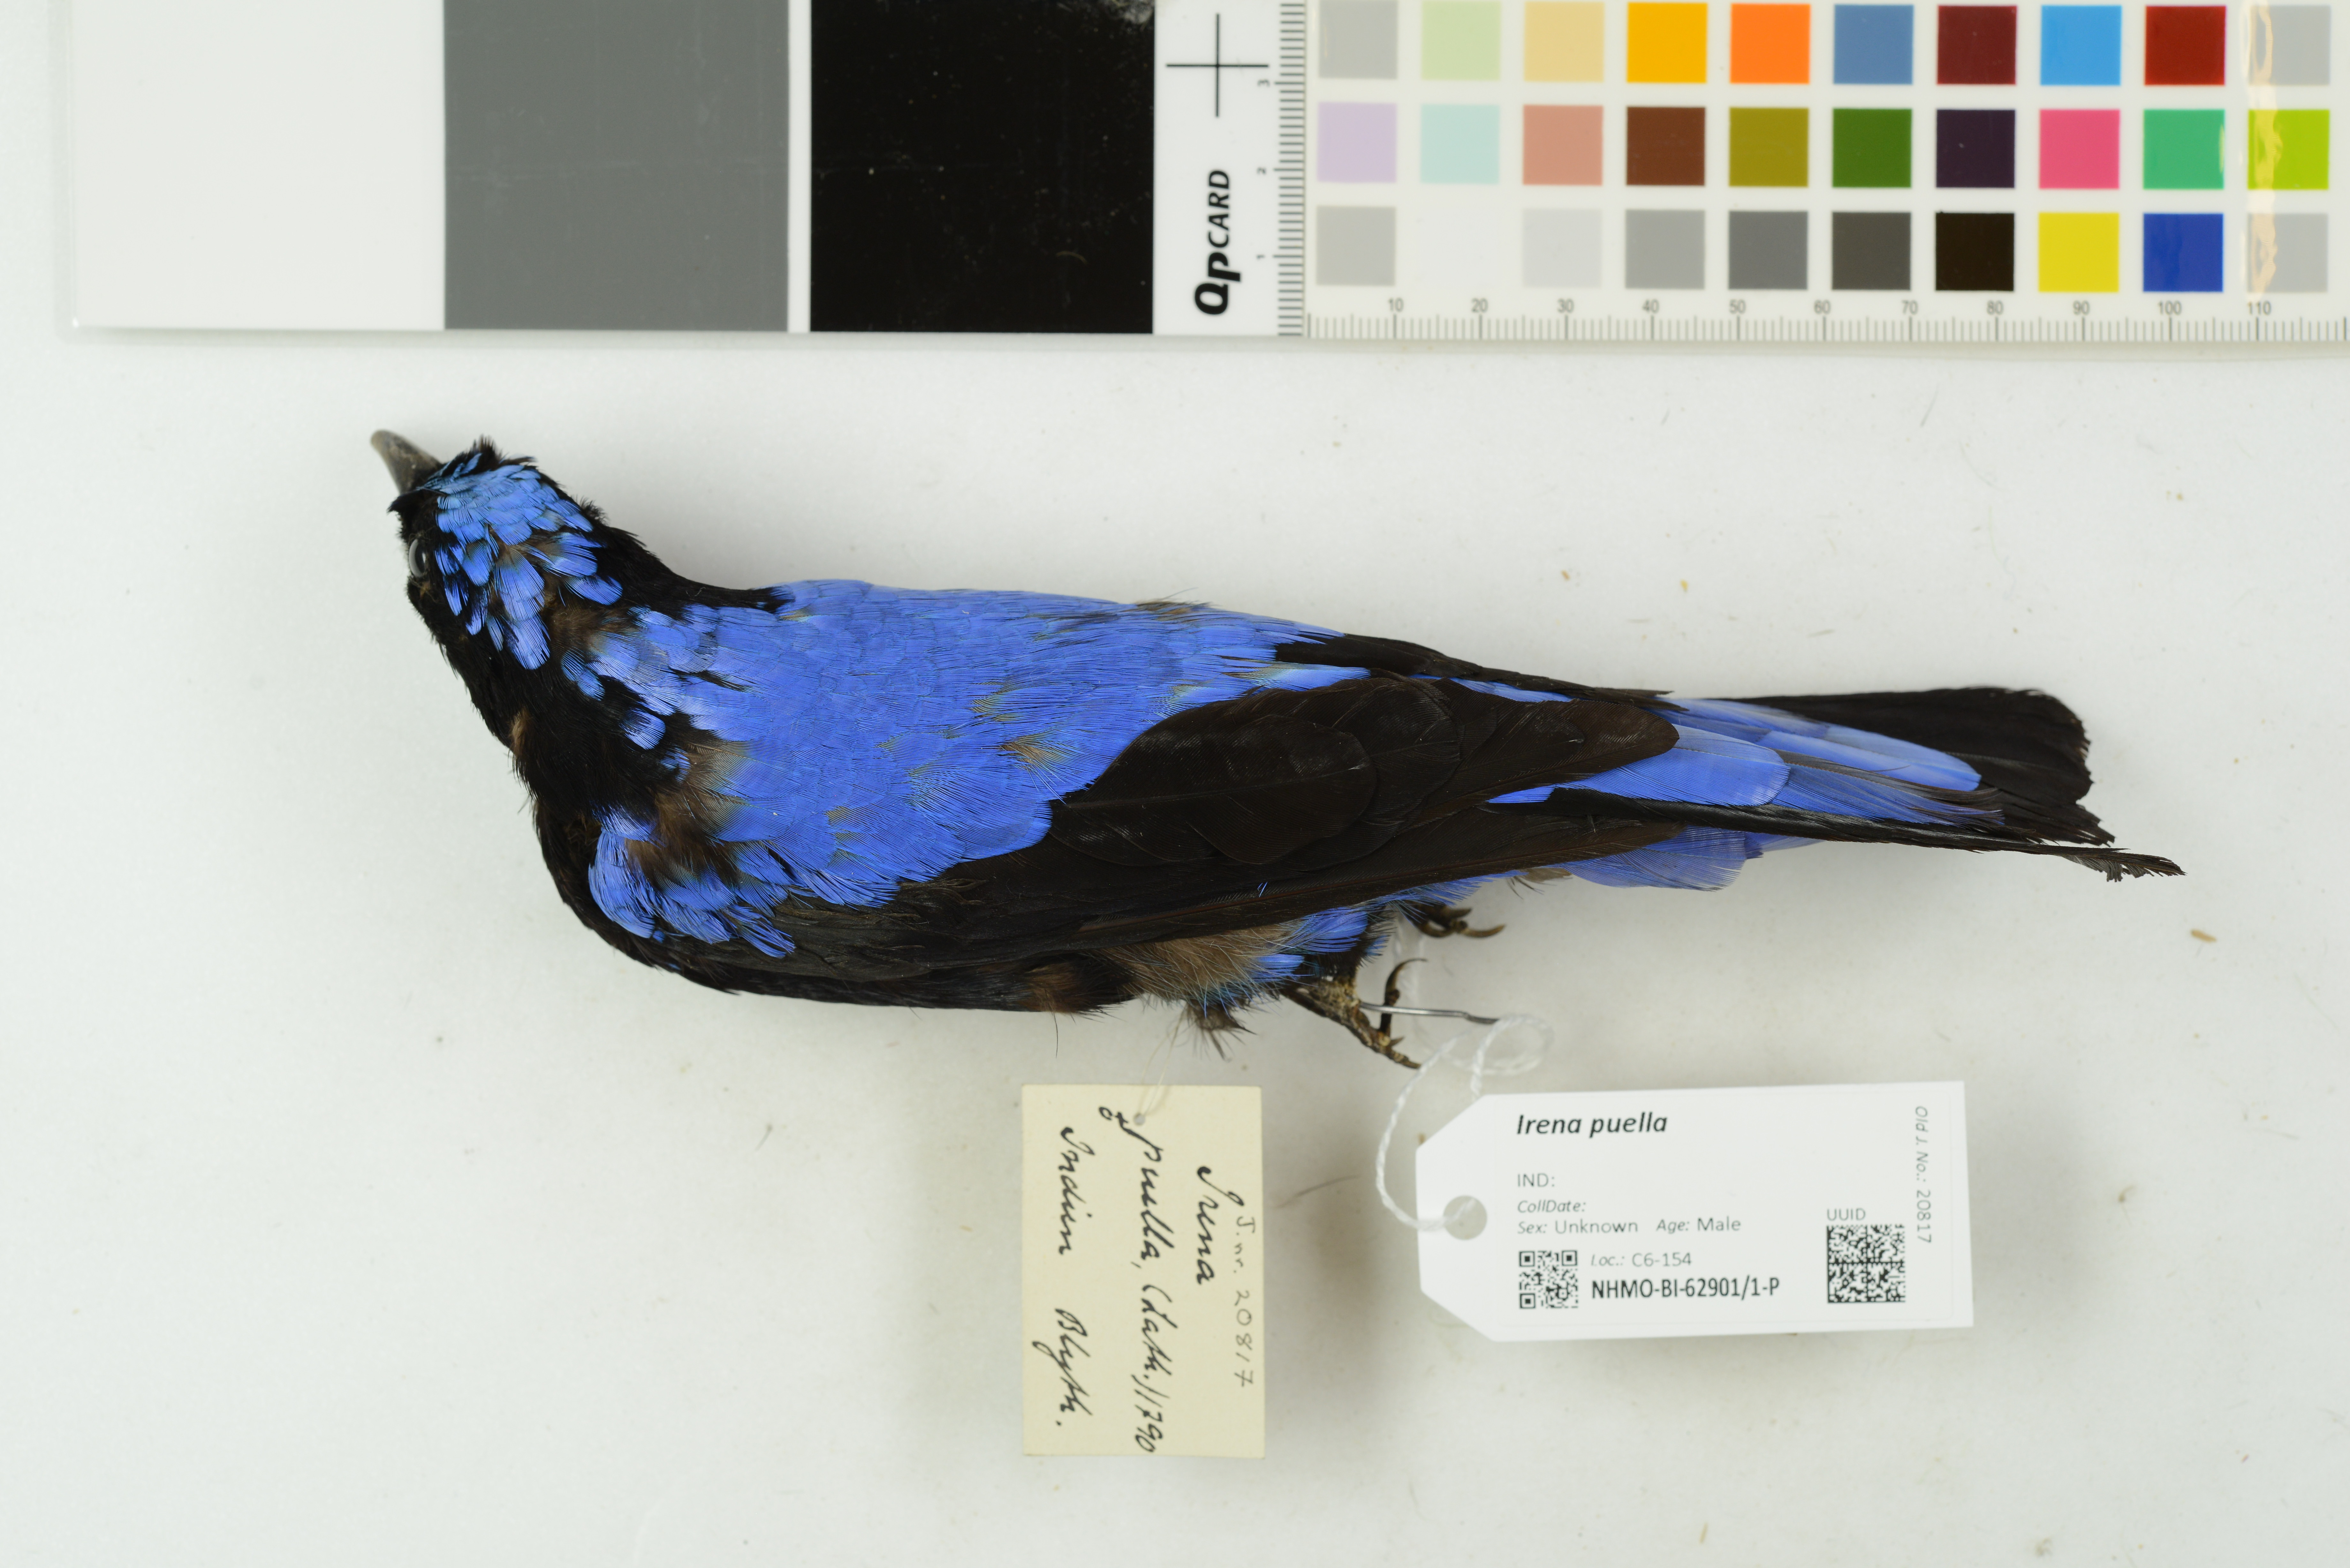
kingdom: Animalia
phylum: Chordata
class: Aves
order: Passeriformes
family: Irenidae
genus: Irena
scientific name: Irena puella
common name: Asian fairy-bluebird
